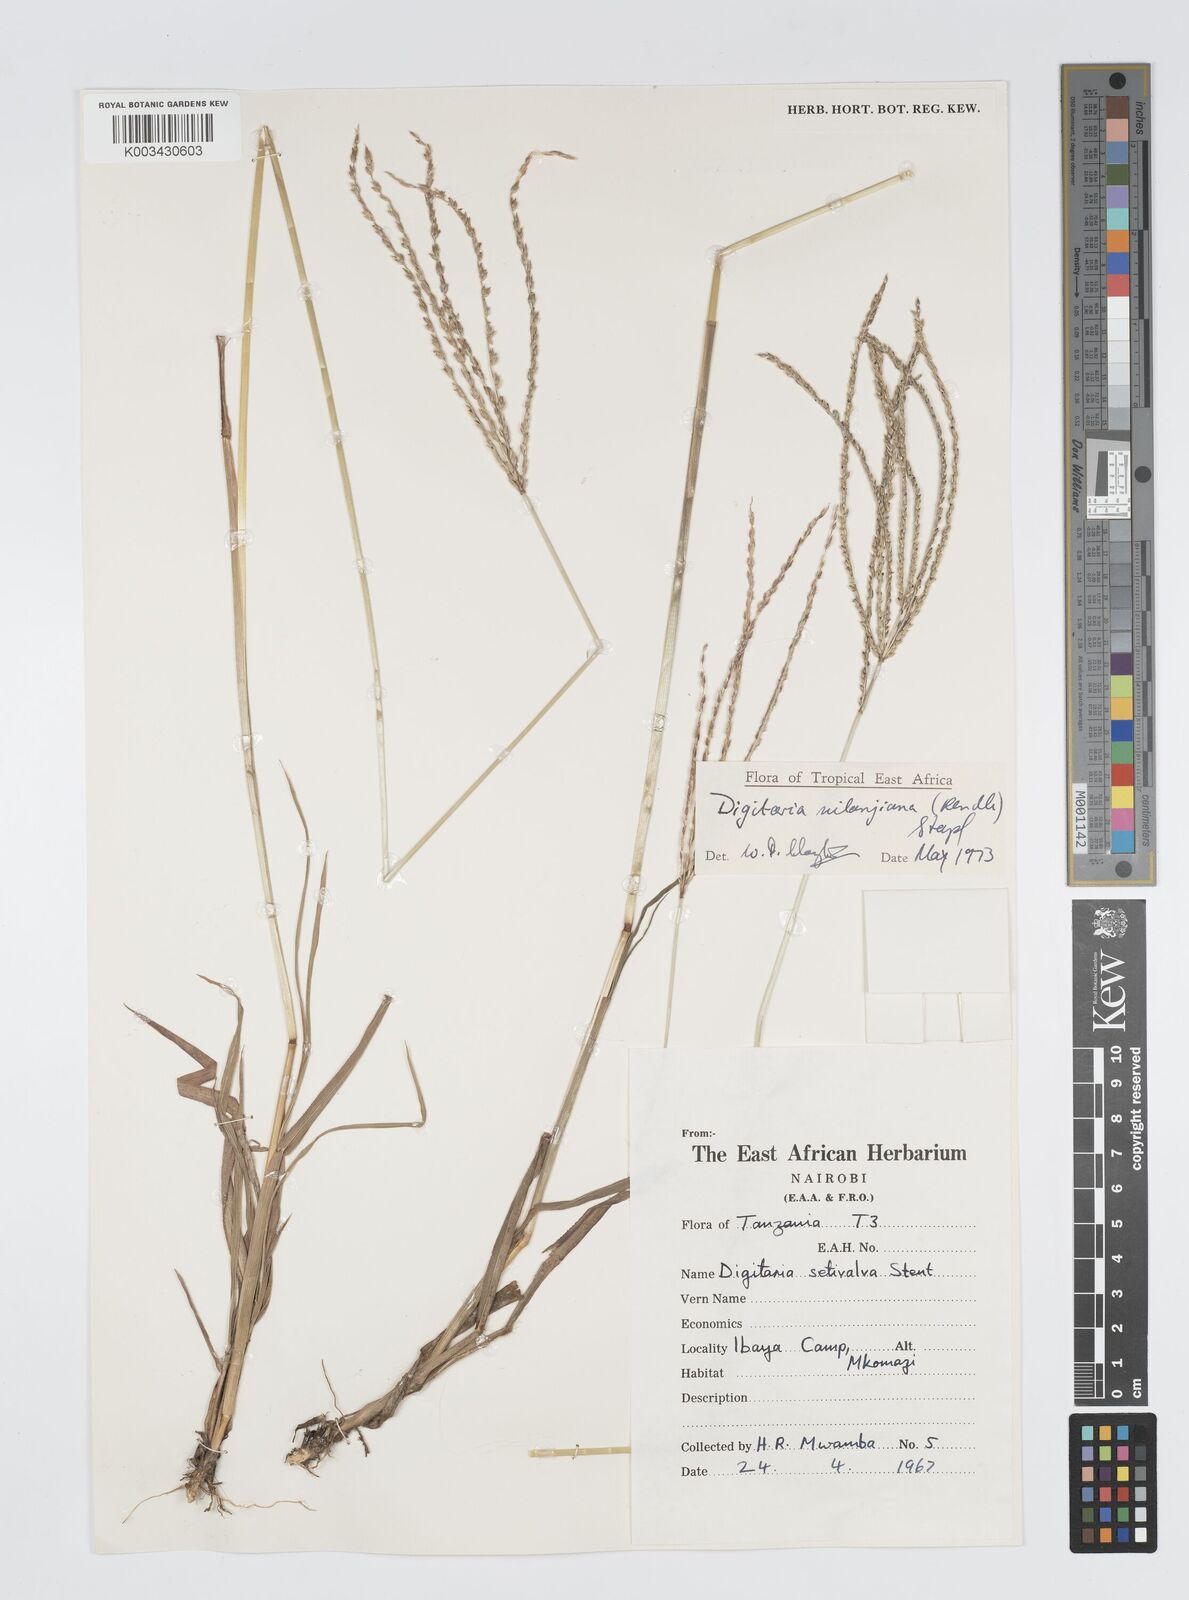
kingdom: Plantae
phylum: Tracheophyta
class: Liliopsida
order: Poales
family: Poaceae
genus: Digitaria
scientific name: Digitaria milanjiana
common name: Madagascar crabgrass
